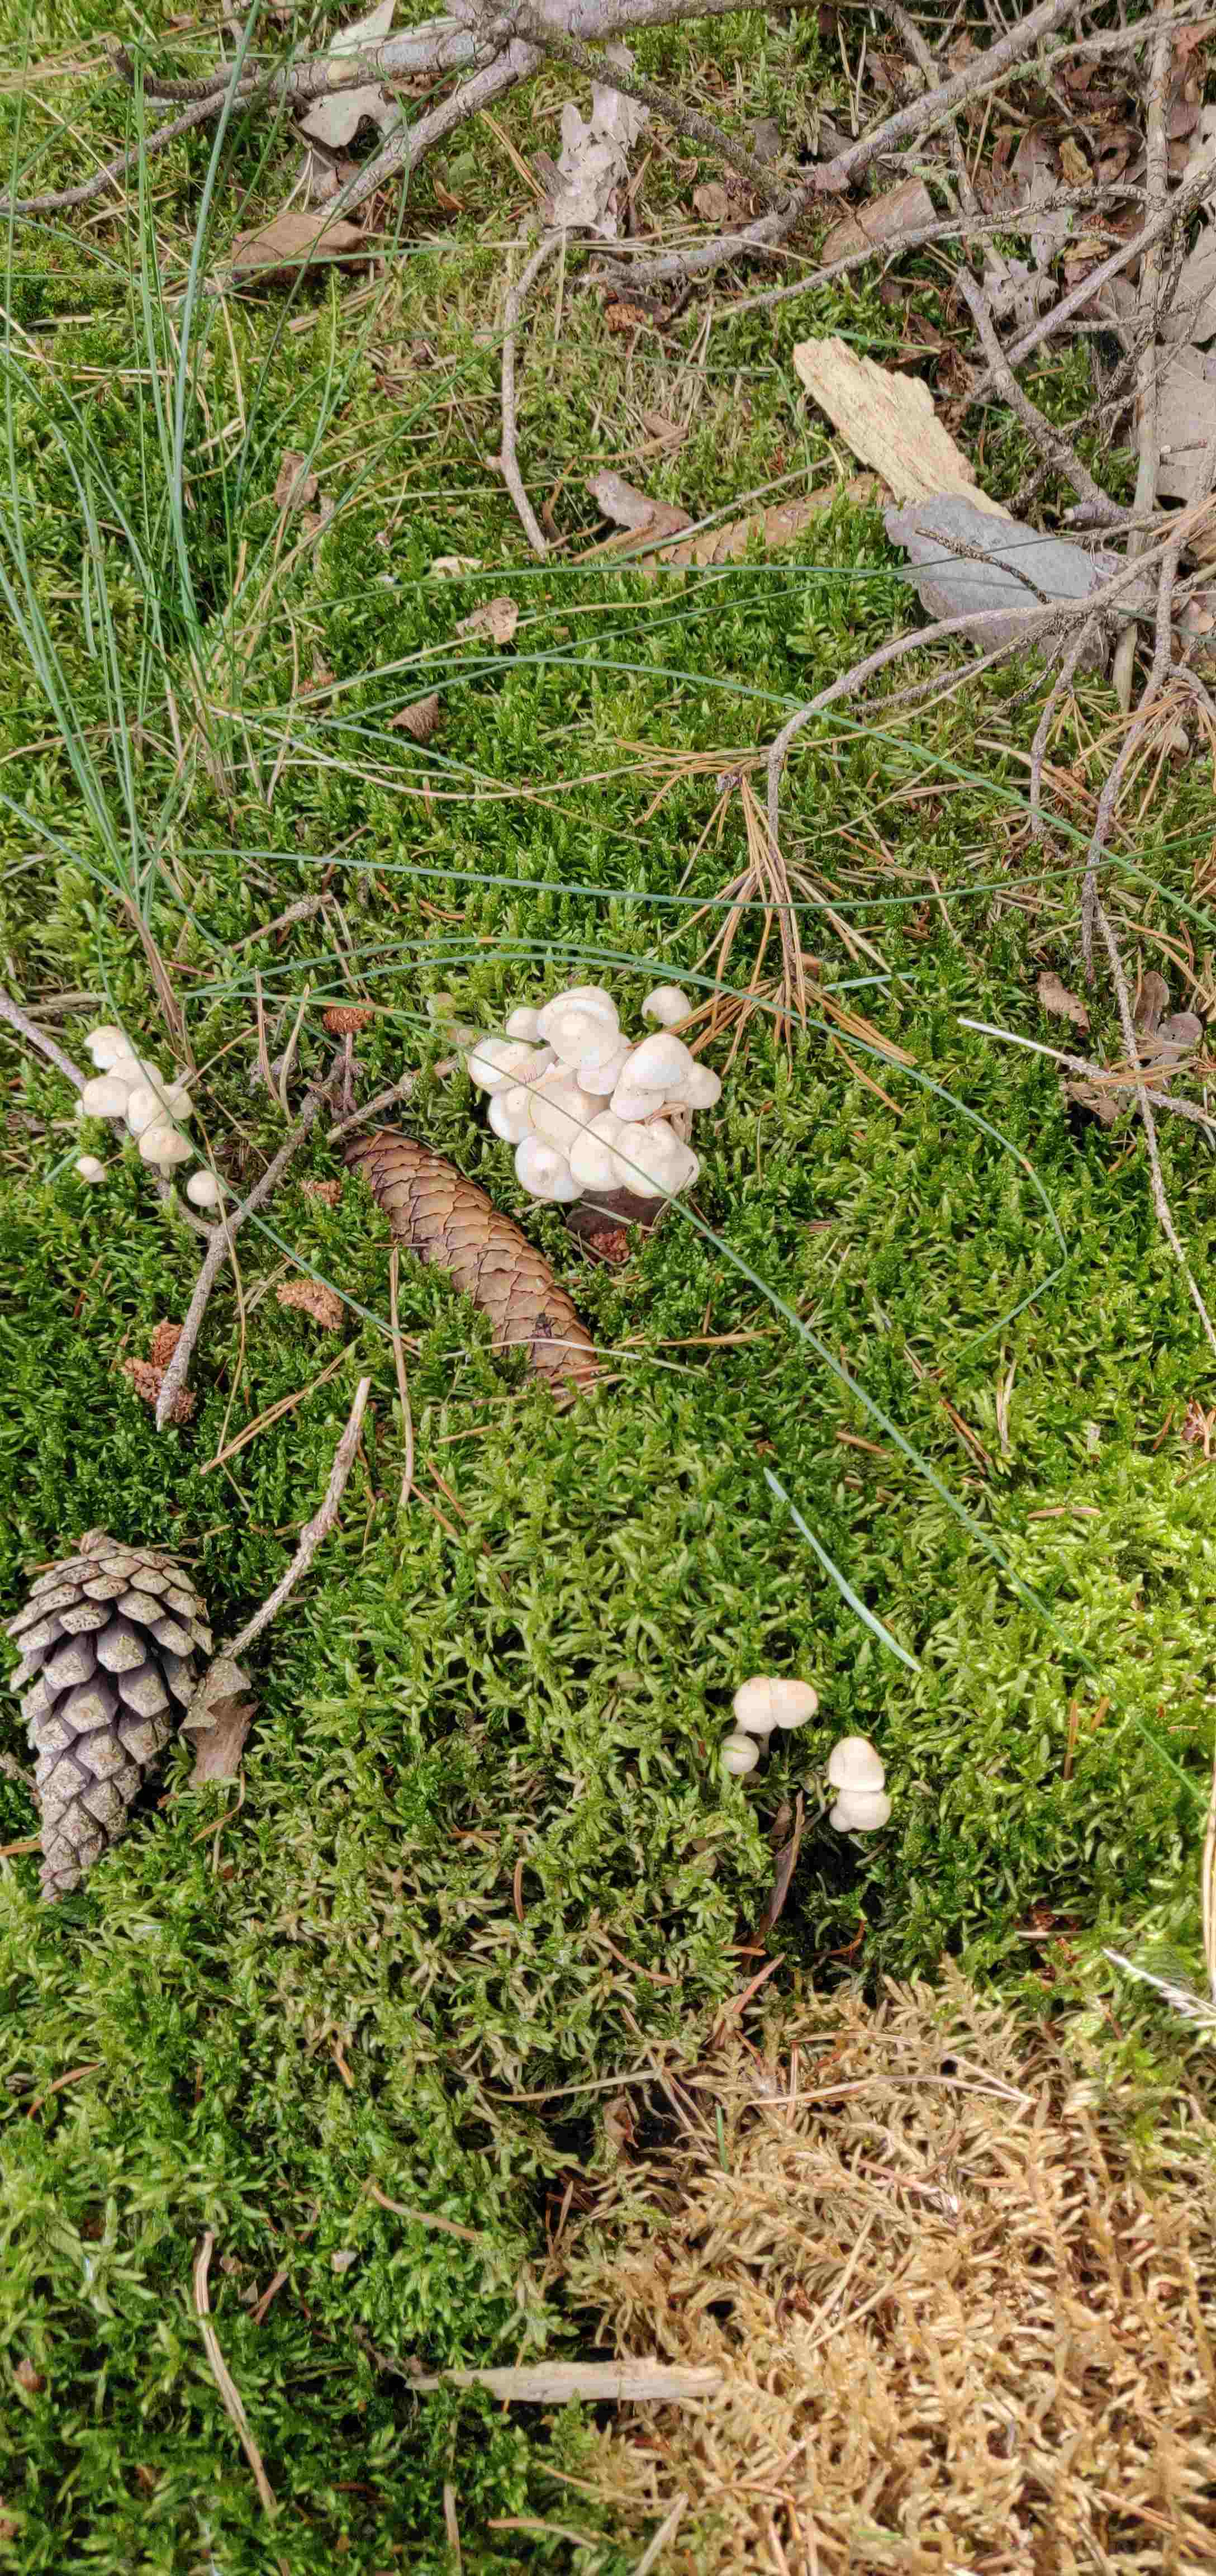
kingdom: Fungi
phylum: Basidiomycota
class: Agaricomycetes
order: Agaricales
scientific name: Agaricales
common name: champignonordenen
